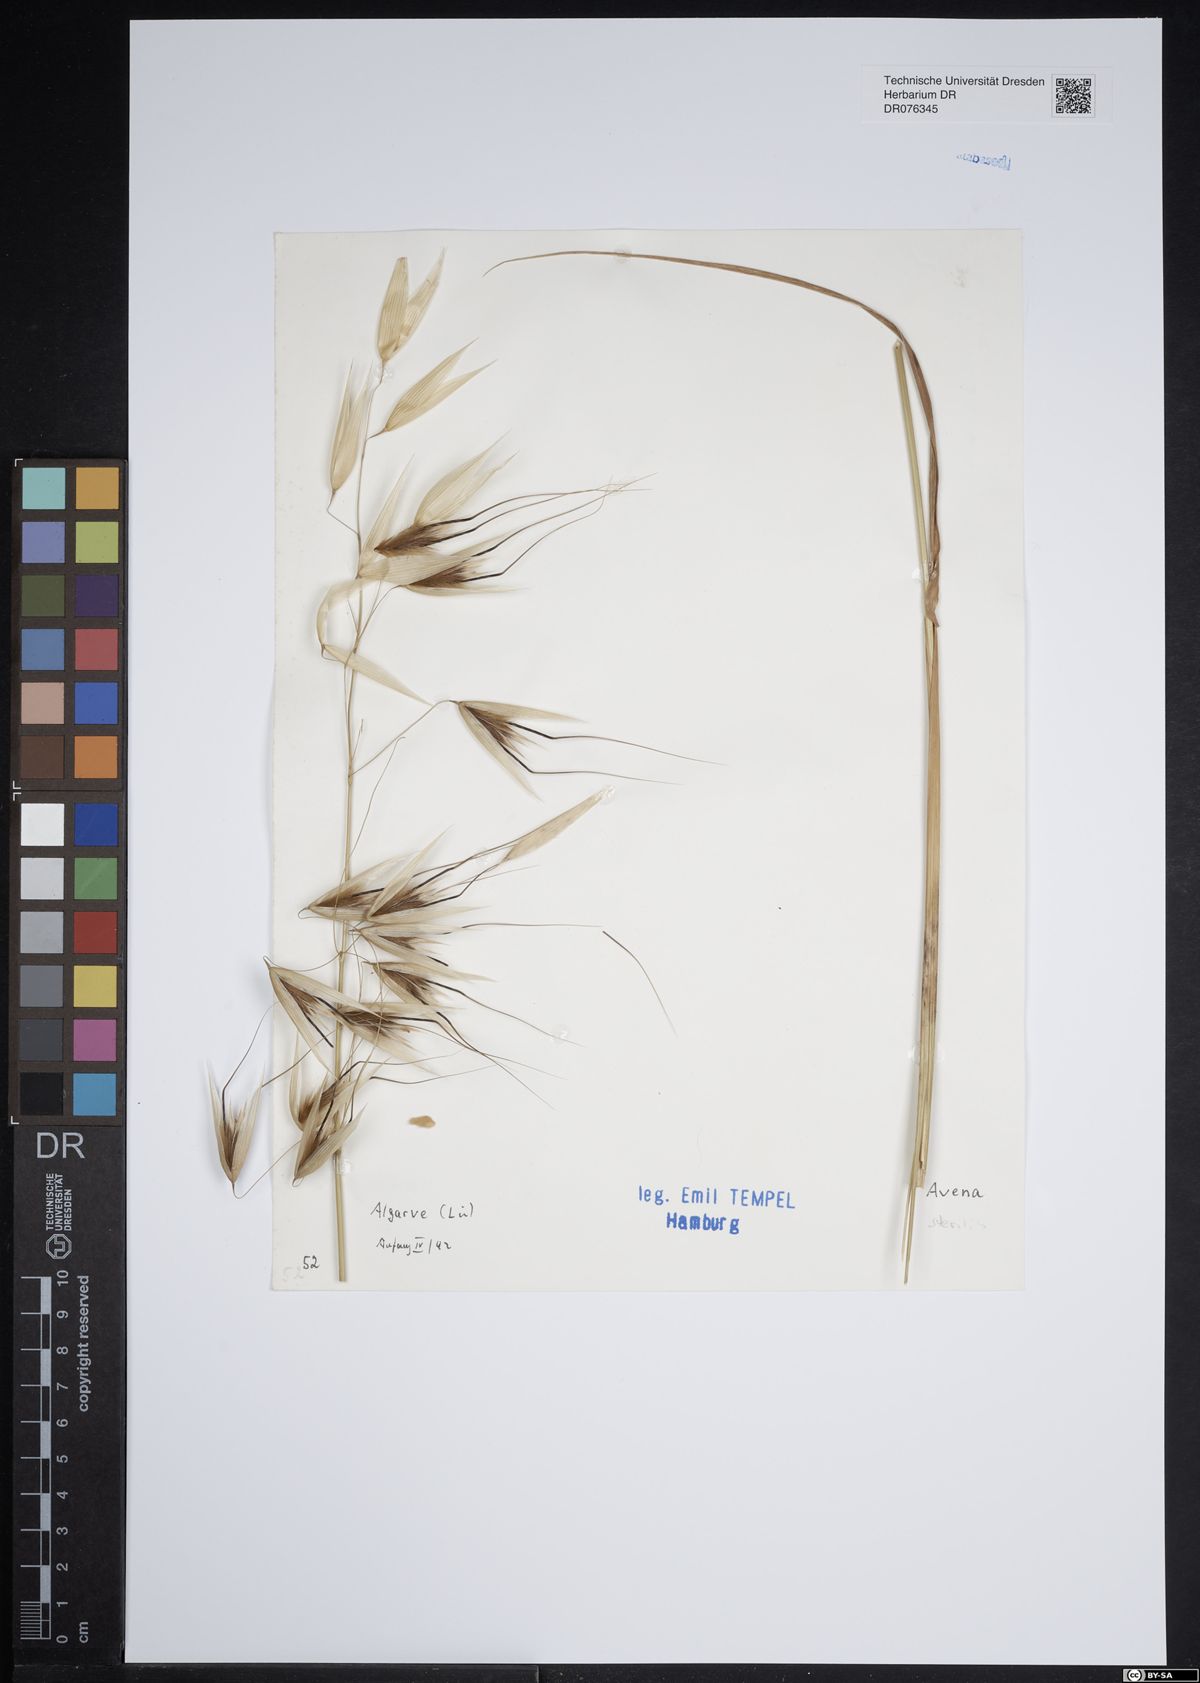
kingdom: Plantae
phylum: Tracheophyta
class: Liliopsida
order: Poales
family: Poaceae
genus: Avena
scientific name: Avena sterilis
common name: Animated oat
